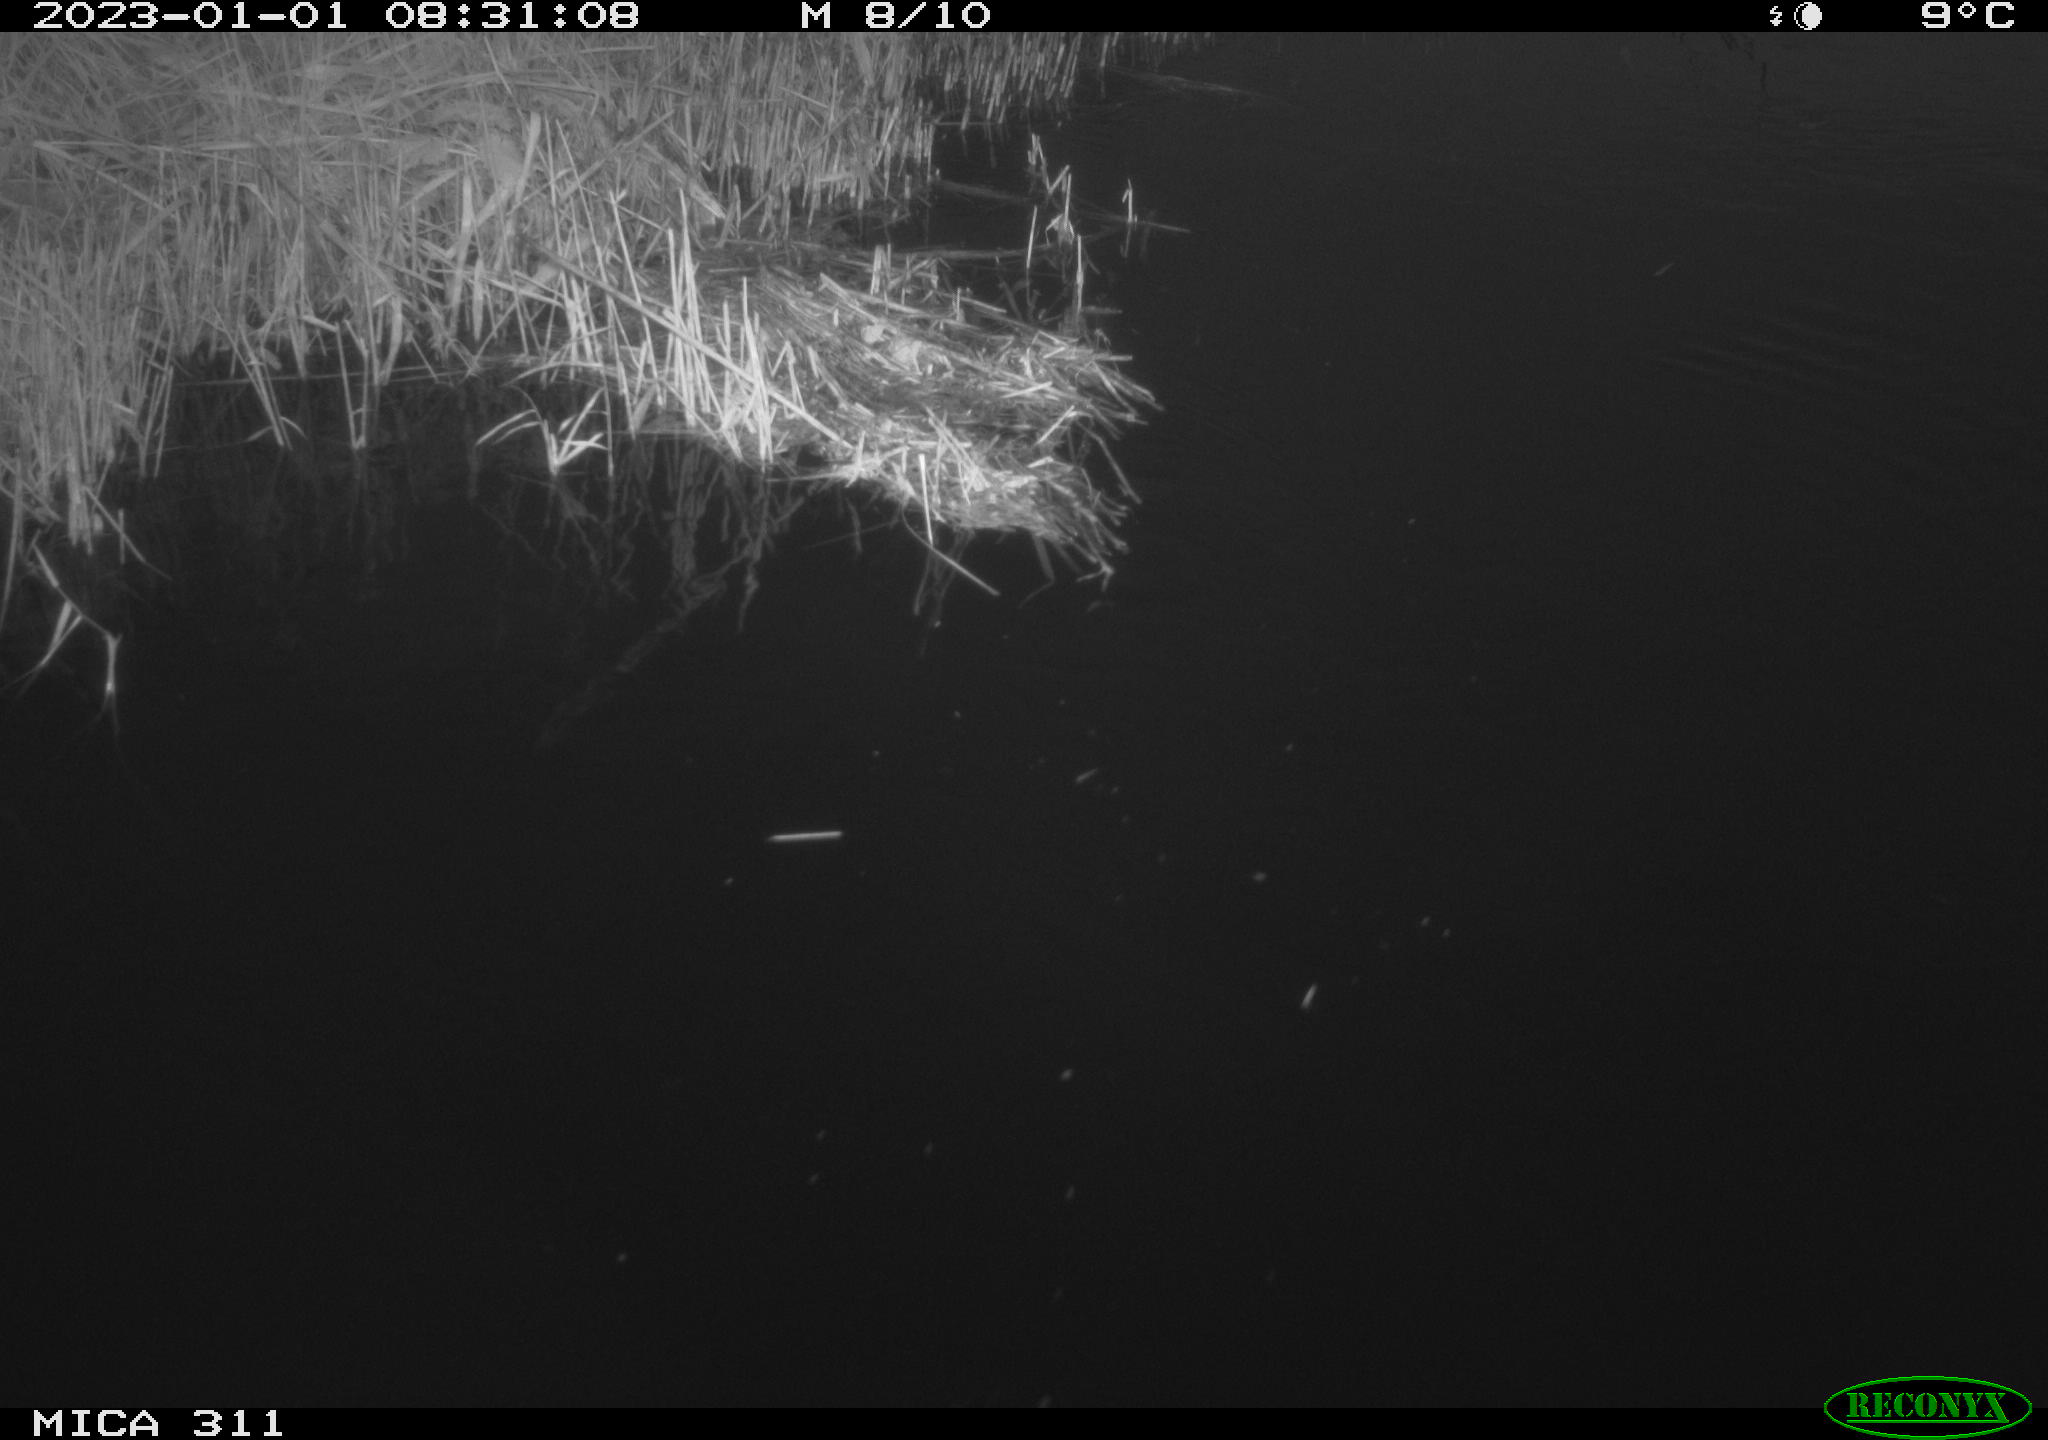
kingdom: Animalia
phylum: Chordata
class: Aves
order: Gruiformes
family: Rallidae
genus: Gallinula
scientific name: Gallinula chloropus
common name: Common moorhen
